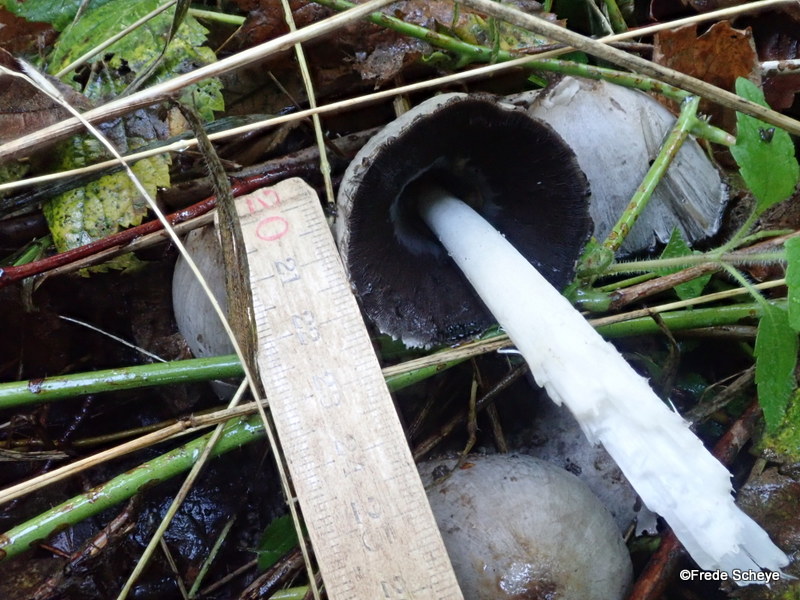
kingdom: Fungi
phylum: Basidiomycota
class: Agaricomycetes
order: Agaricales
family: Psathyrellaceae
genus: Coprinopsis
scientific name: Coprinopsis atramentaria
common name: almindelig blækhat
